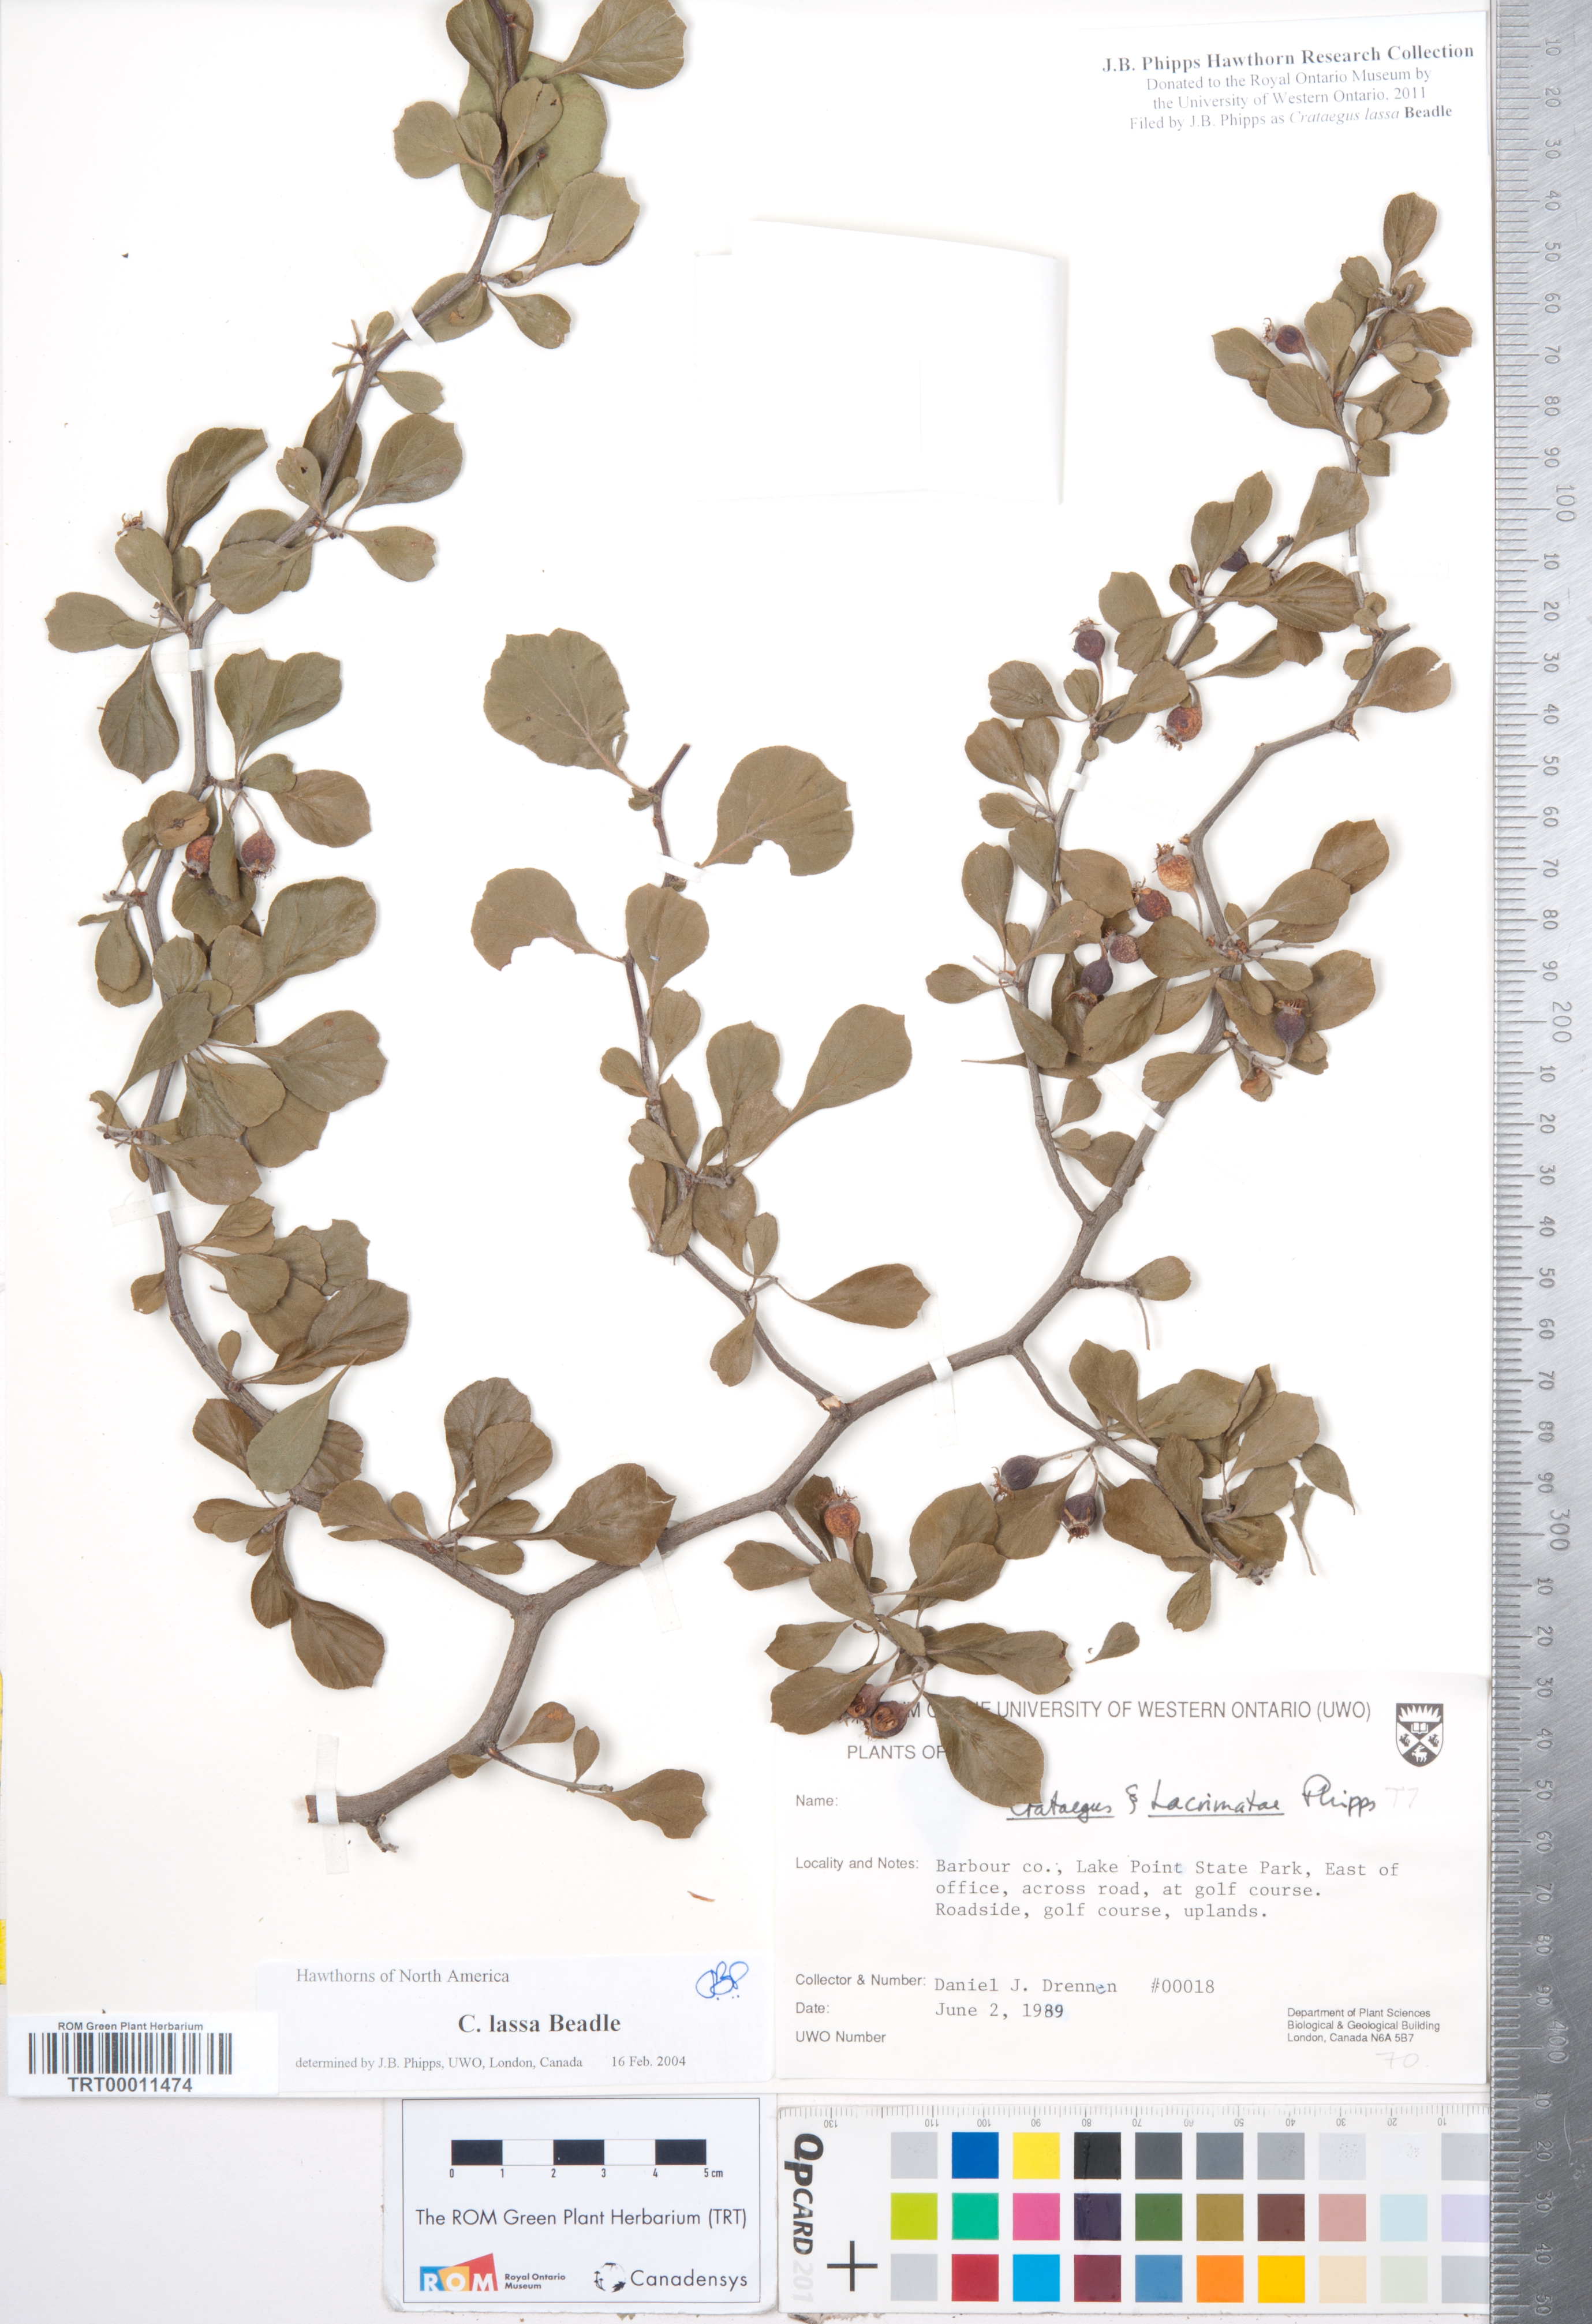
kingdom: Plantae
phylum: Tracheophyta
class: Magnoliopsida
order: Rosales
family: Rosaceae
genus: Crataegus
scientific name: Crataegus lassa
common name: Florida hawthorn
